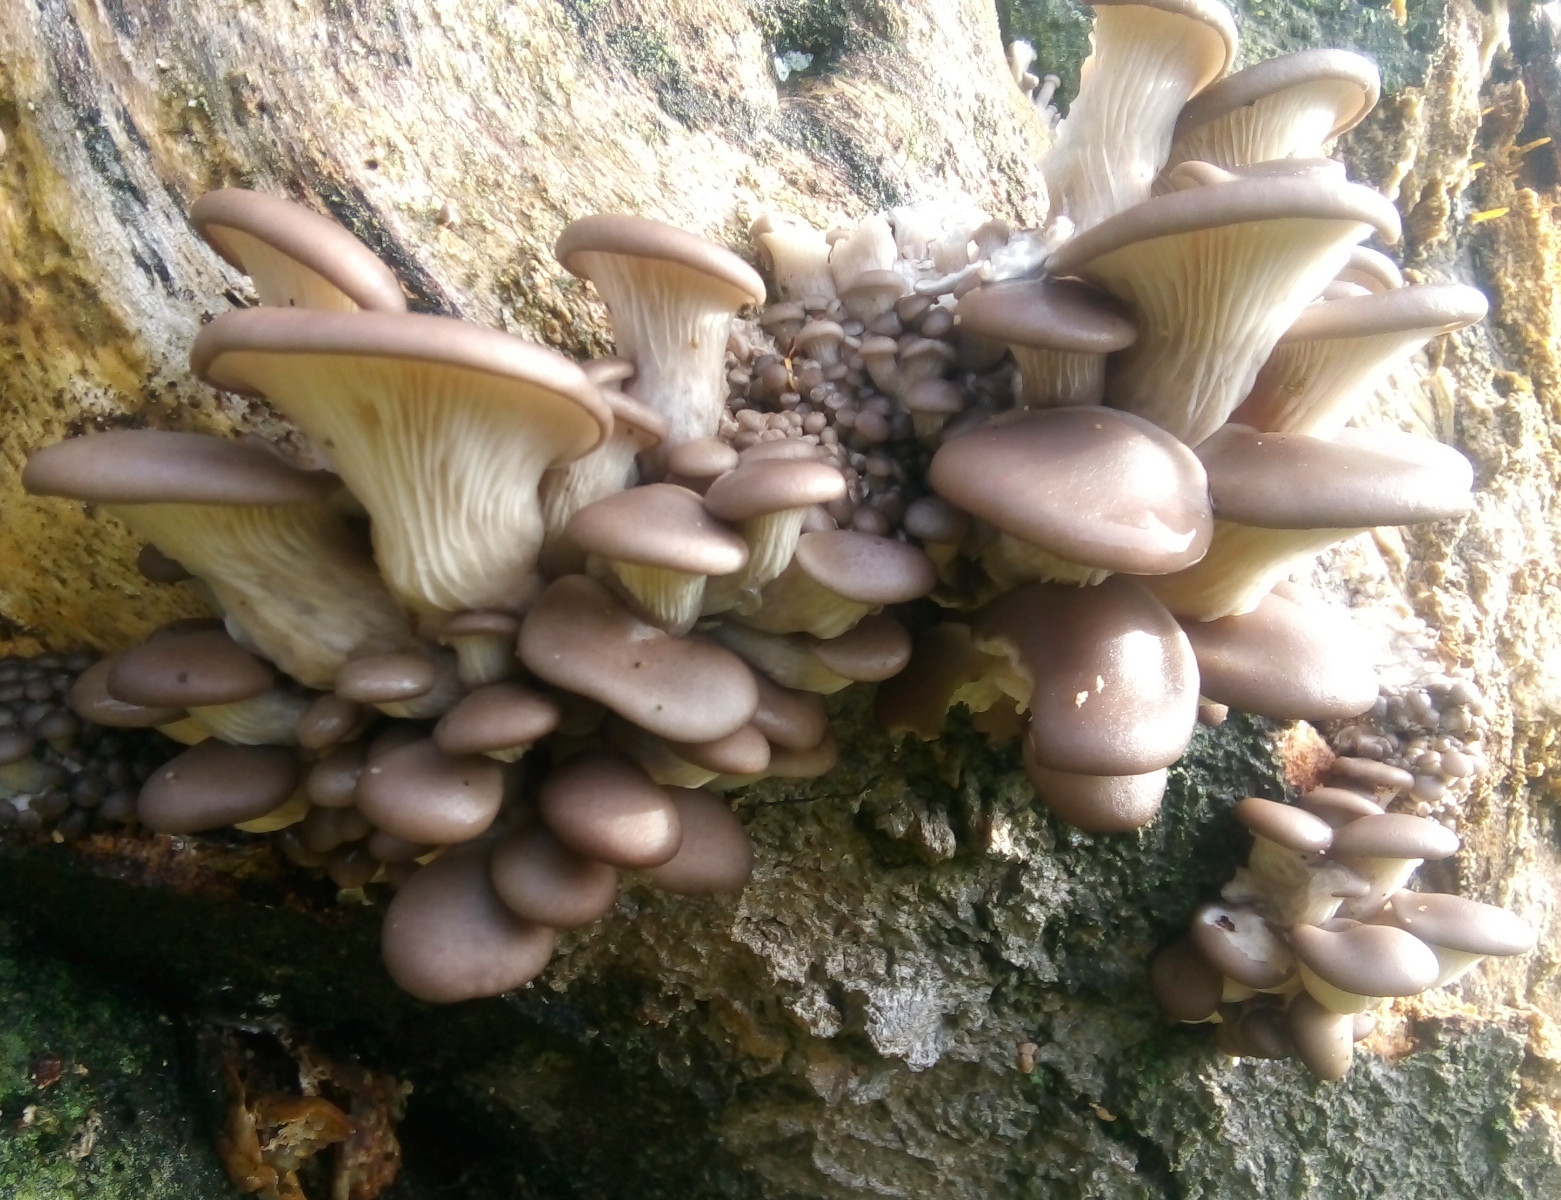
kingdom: Fungi
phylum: Basidiomycota
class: Agaricomycetes
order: Agaricales
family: Pleurotaceae
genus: Pleurotus
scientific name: Pleurotus ostreatus
